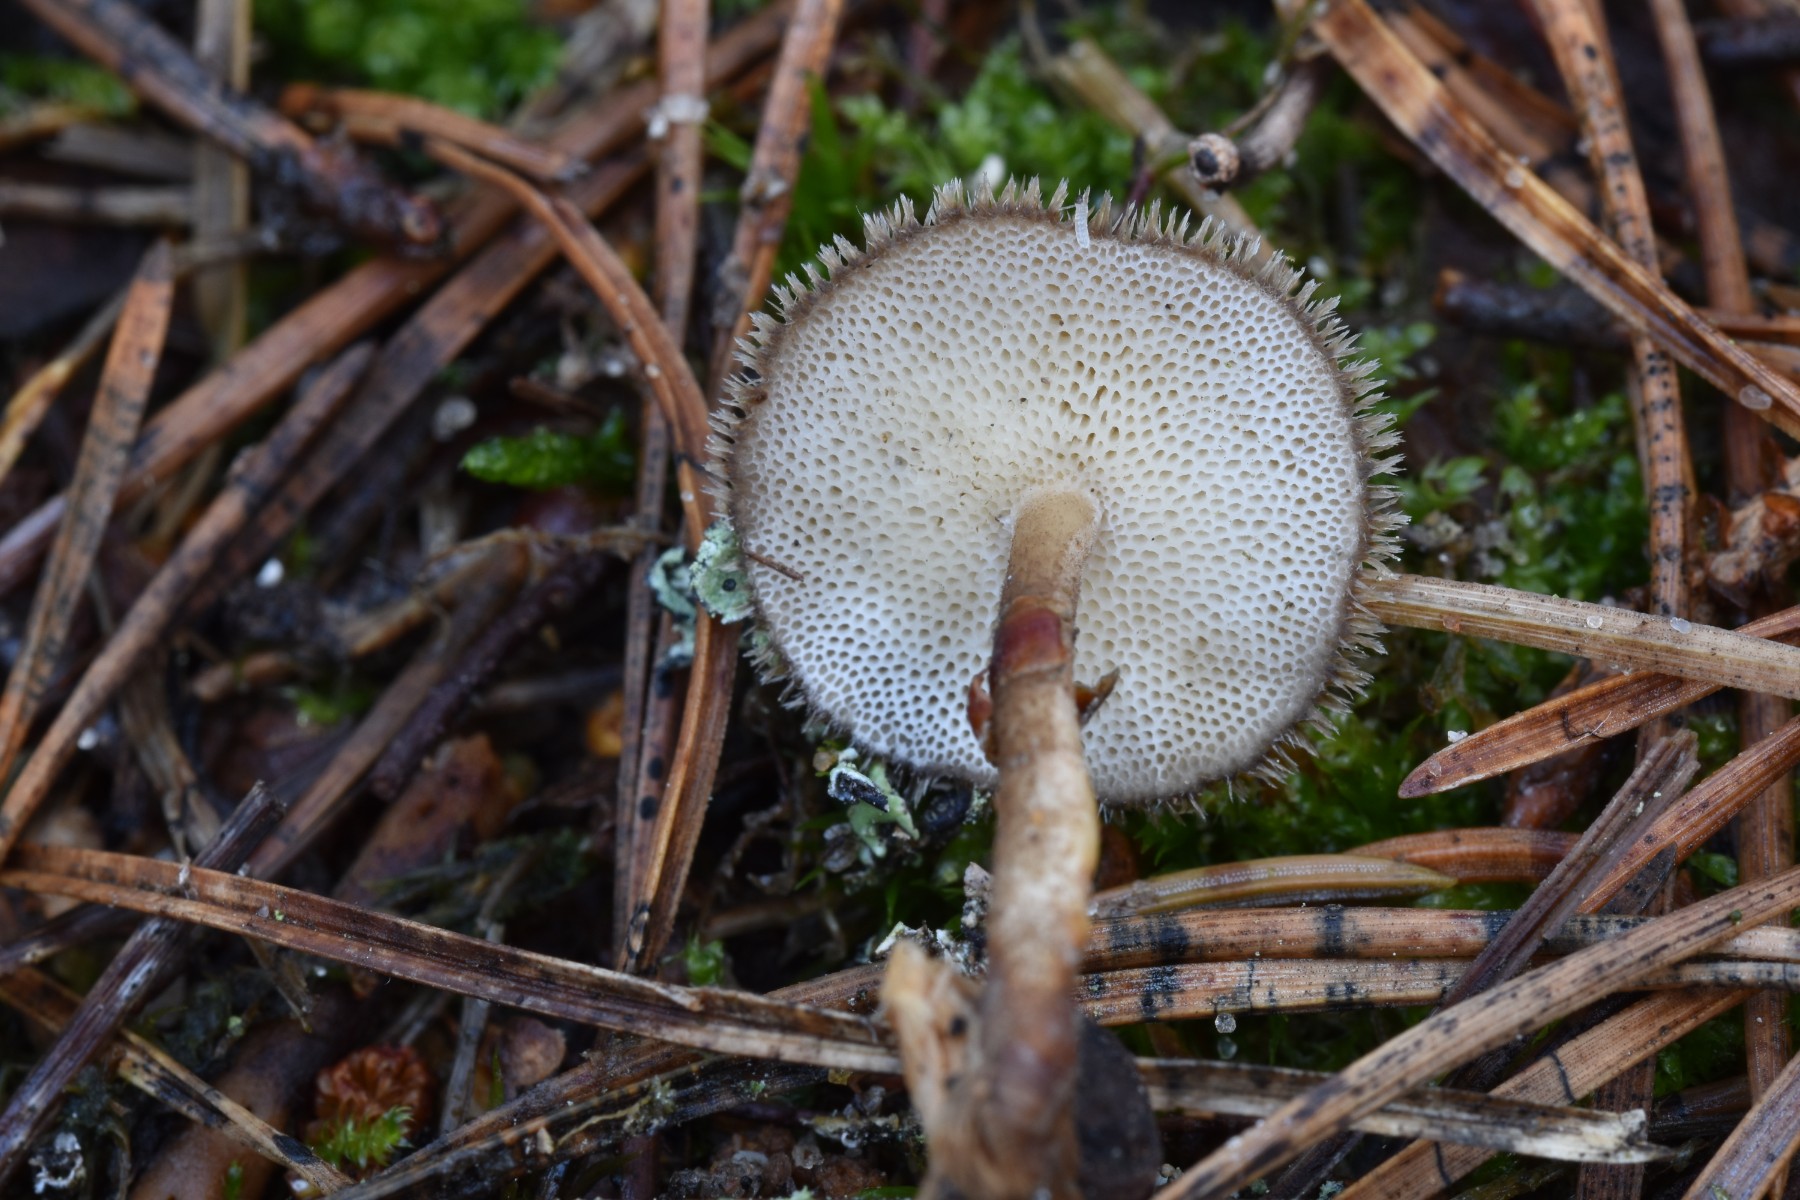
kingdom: Fungi
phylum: Basidiomycota
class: Agaricomycetes
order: Polyporales
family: Polyporaceae
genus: Lentinus
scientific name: Lentinus brumalis
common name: vinter-stilkporesvamp
